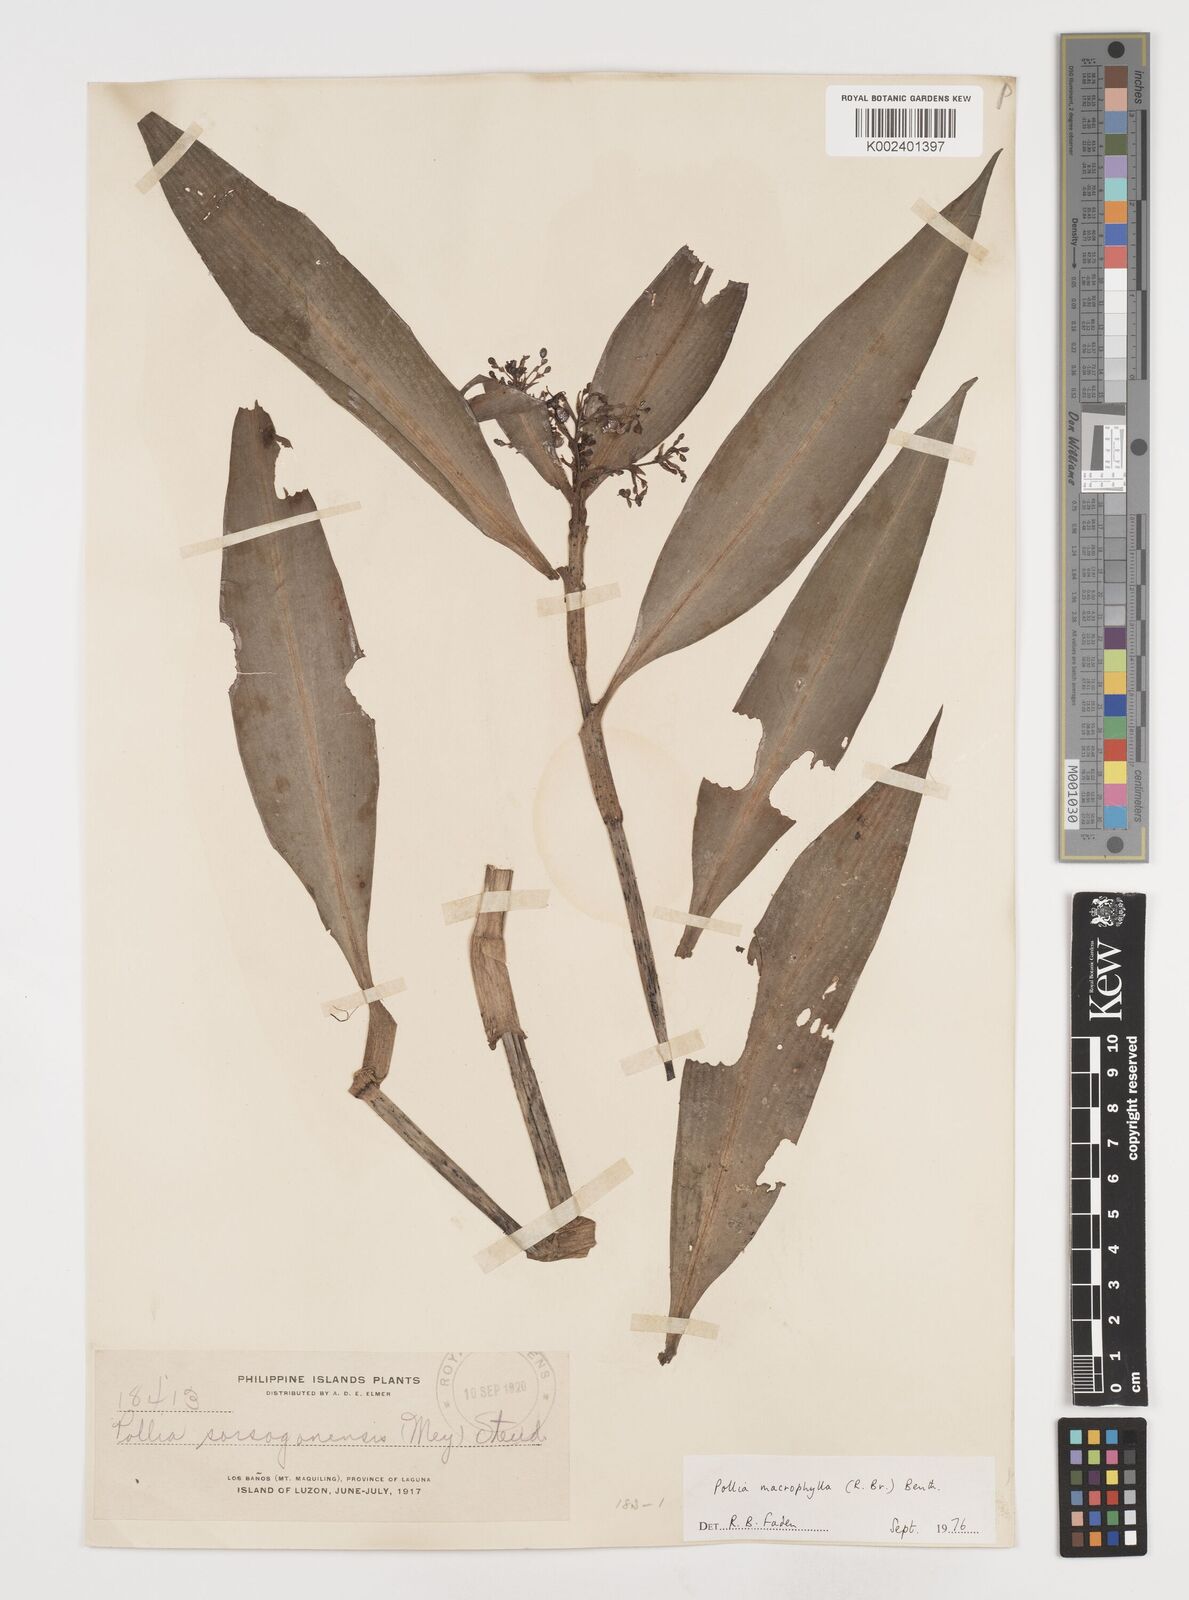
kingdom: Plantae
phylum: Tracheophyta
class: Liliopsida
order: Commelinales
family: Commelinaceae
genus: Pollia
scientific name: Pollia macrophylla
